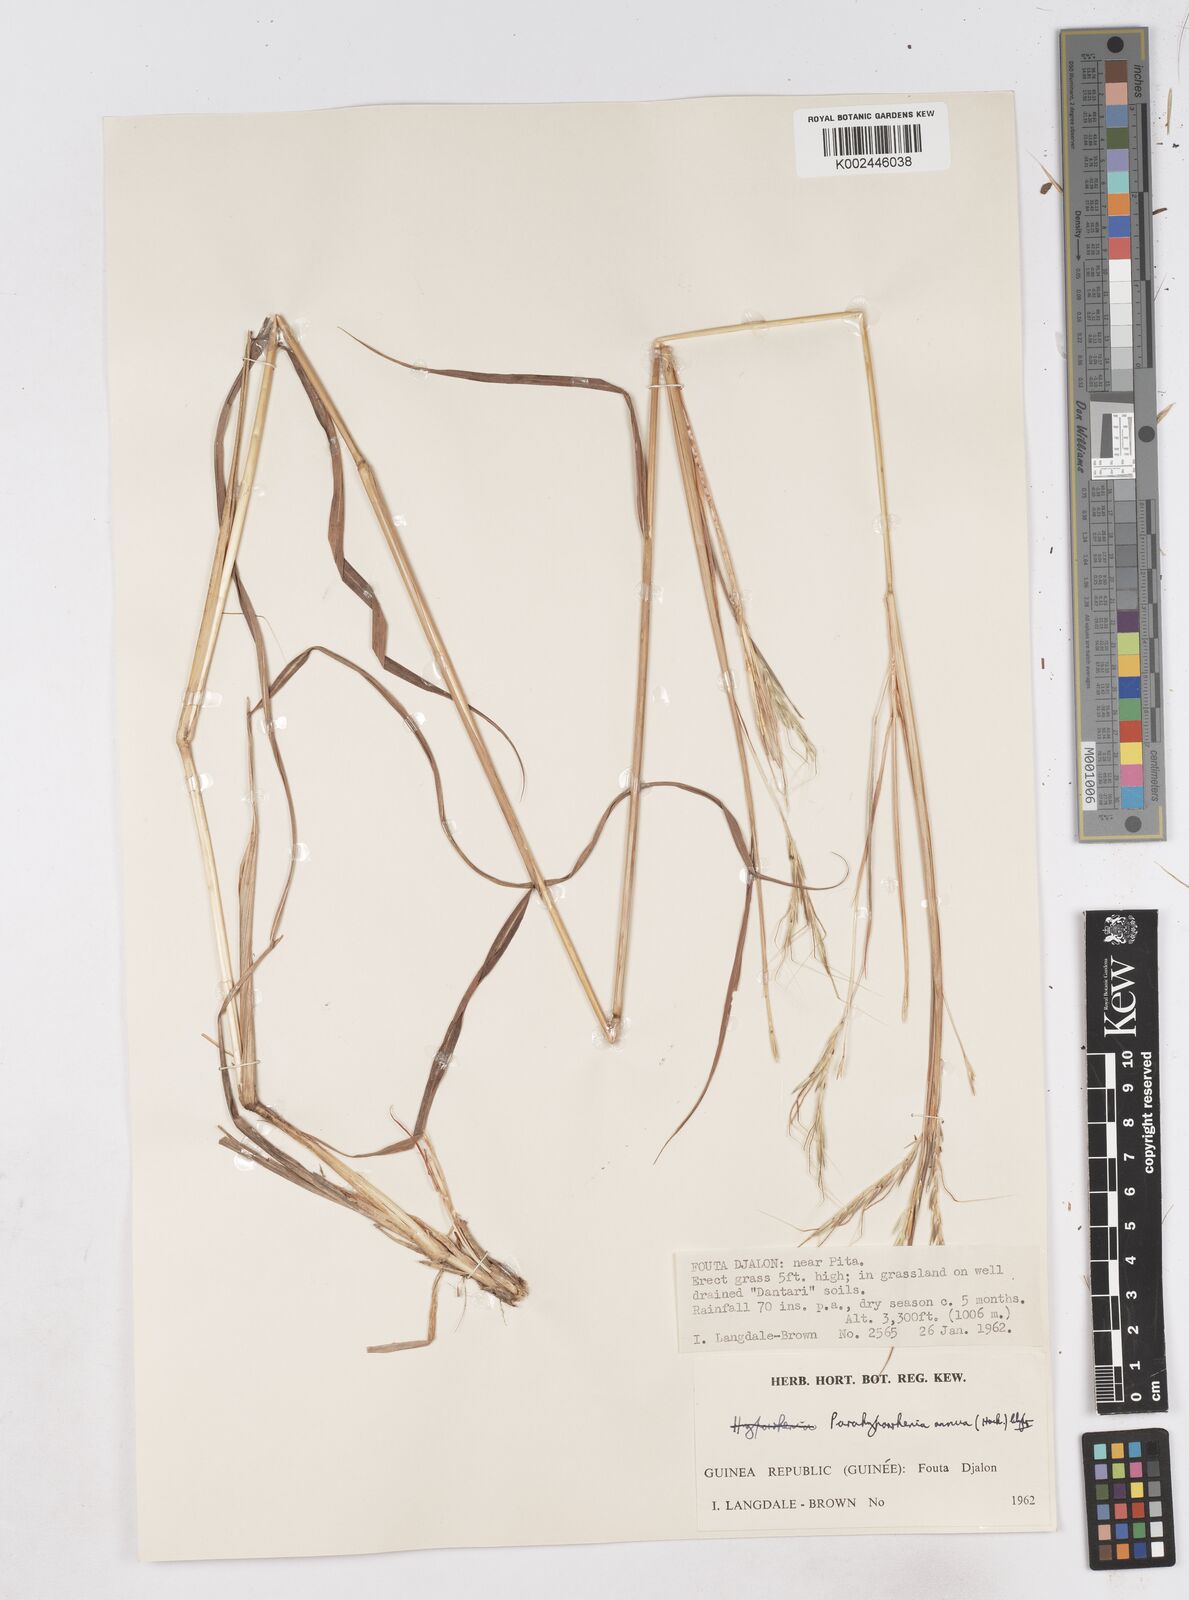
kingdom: Plantae
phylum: Tracheophyta
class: Liliopsida
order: Poales
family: Poaceae
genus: Parahyparrhenia
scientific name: Parahyparrhenia annua
